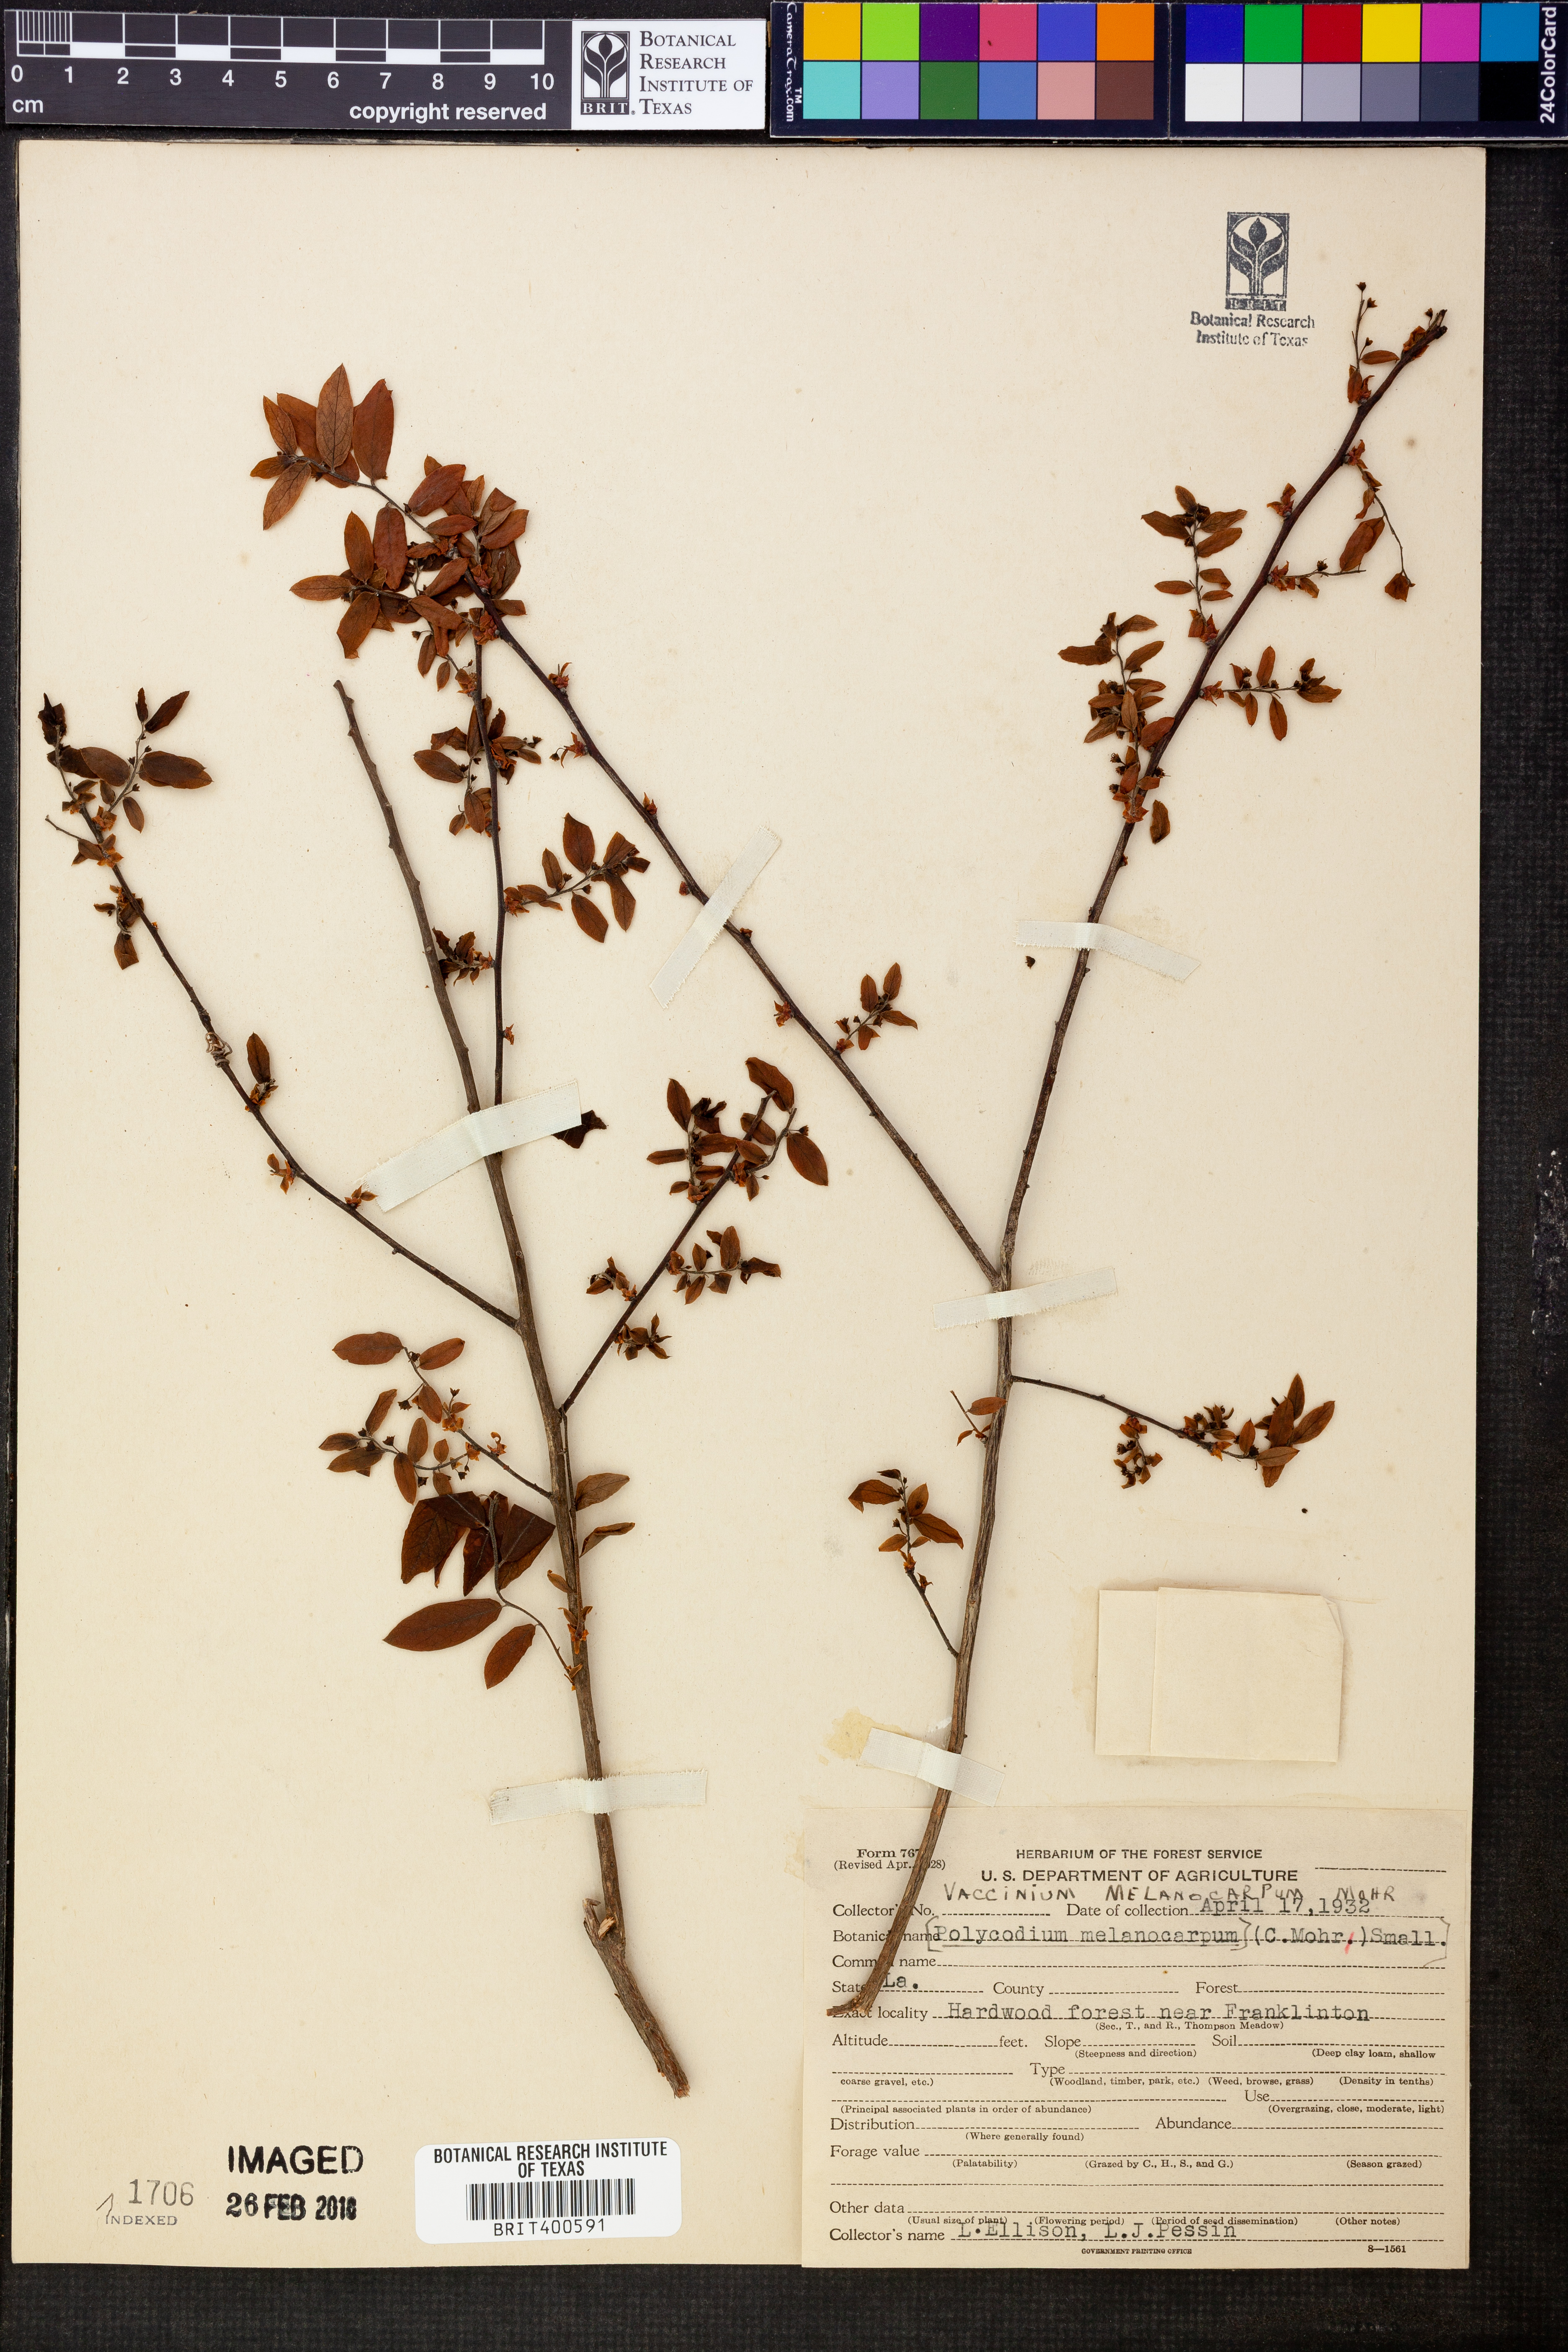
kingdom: Plantae
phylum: Tracheophyta
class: Magnoliopsida
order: Ericales
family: Ericaceae
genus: Vaccinium
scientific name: Vaccinium stamineum
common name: Deerberry
